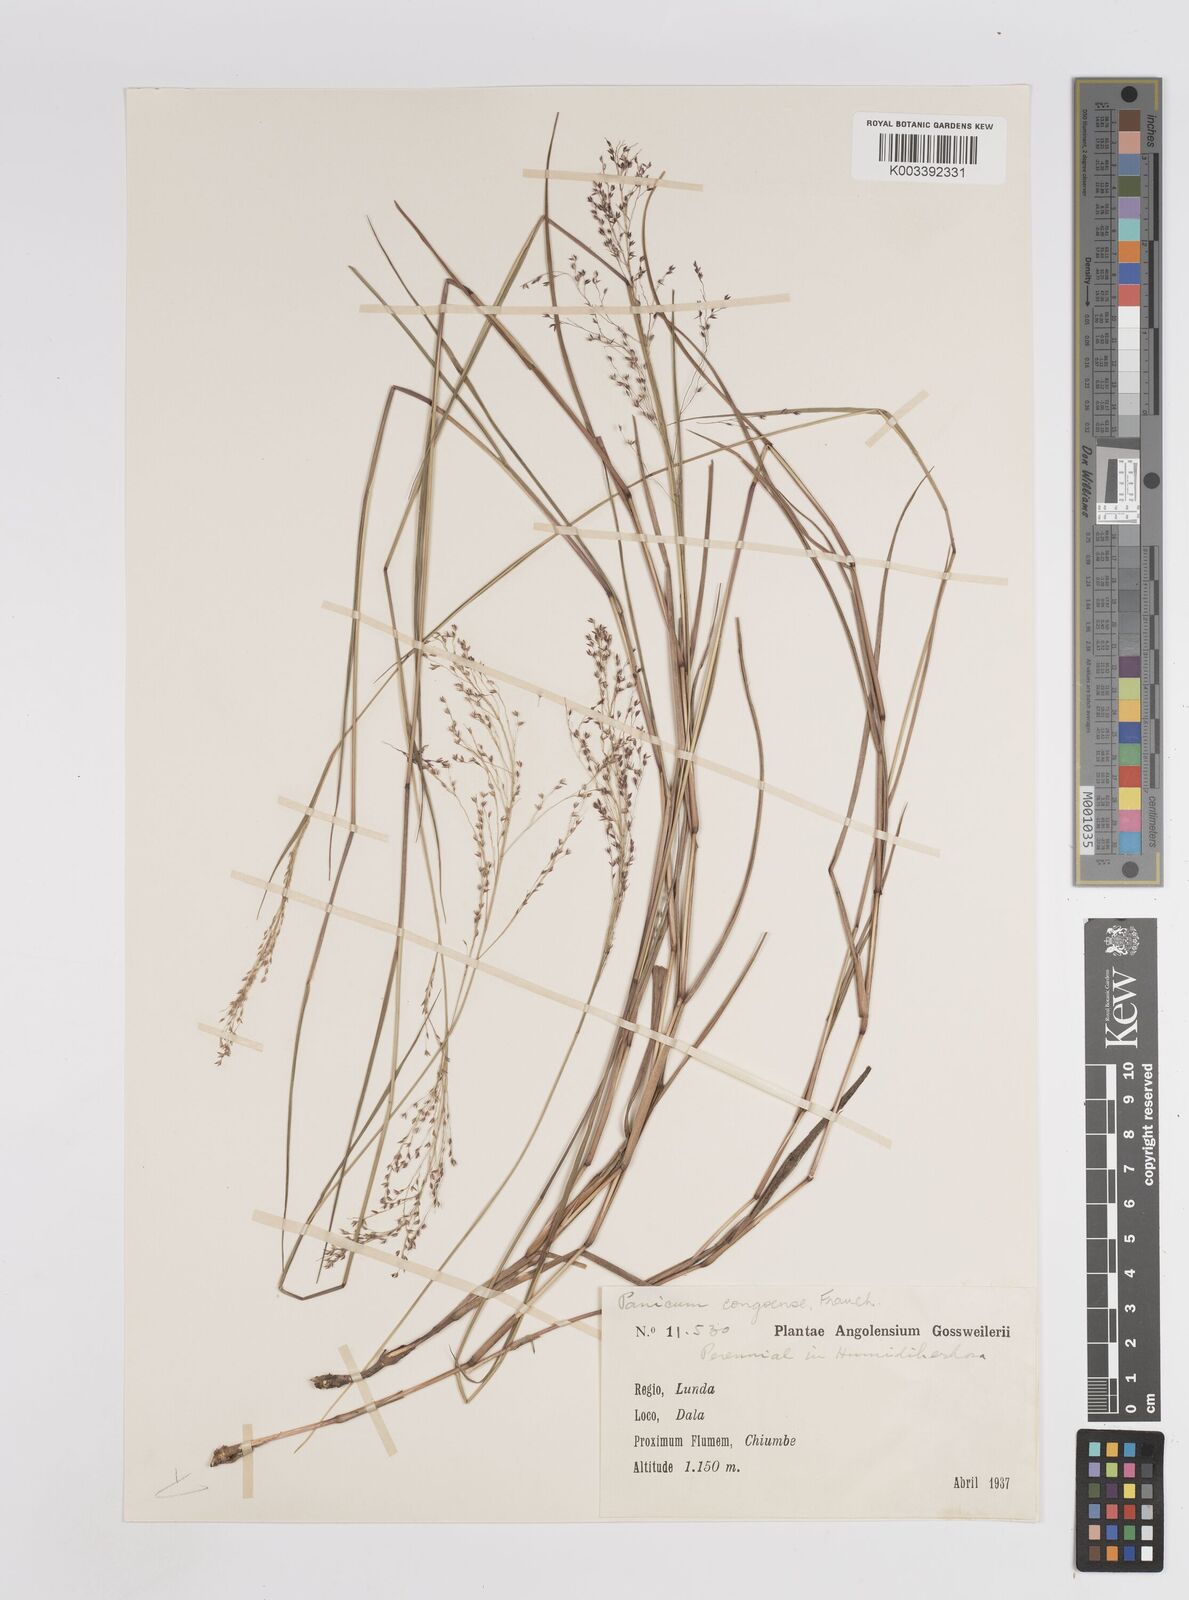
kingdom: Plantae
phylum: Tracheophyta
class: Liliopsida
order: Poales
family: Poaceae
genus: Panicum
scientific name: Panicum genuflexum
